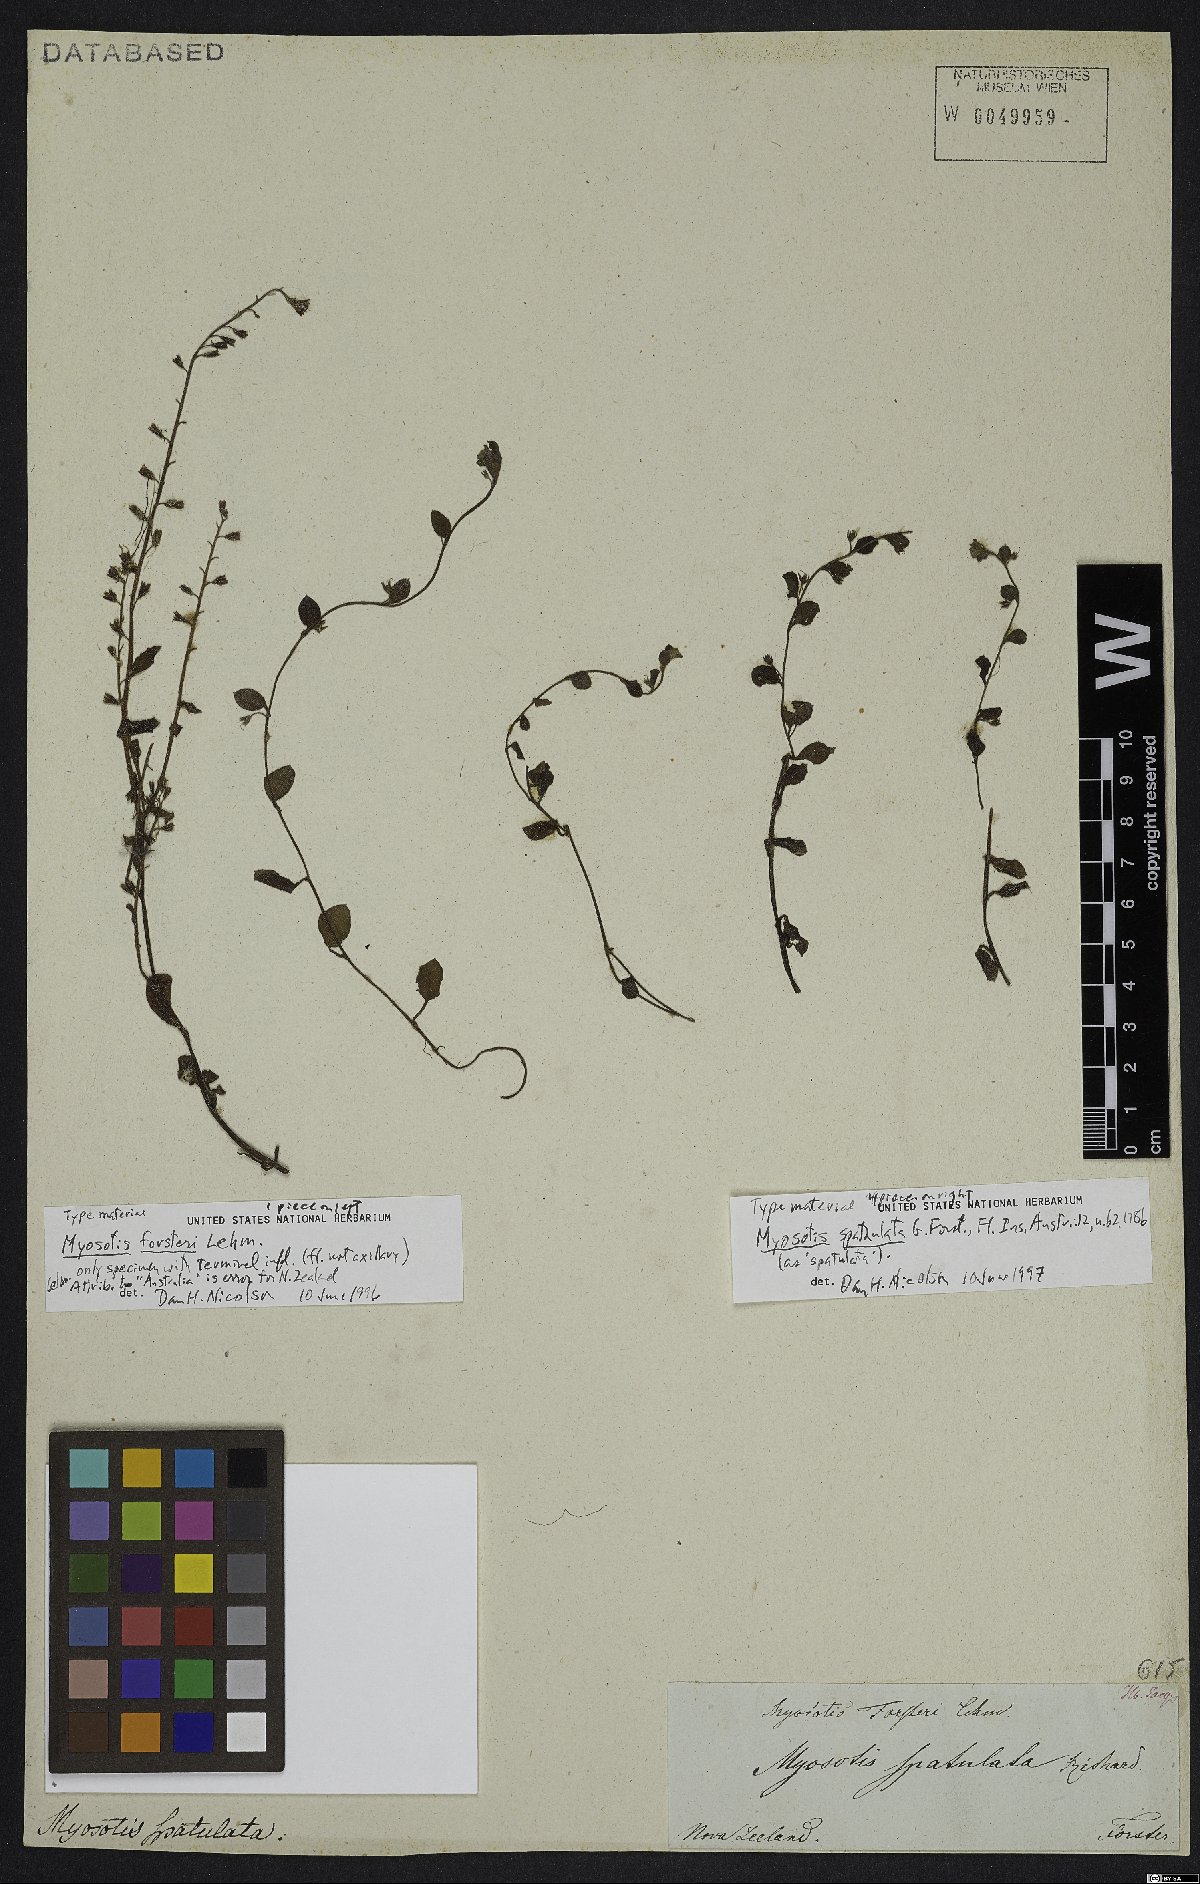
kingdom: Plantae
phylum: Tracheophyta
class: Magnoliopsida
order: Boraginales
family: Boraginaceae
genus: Myosotis
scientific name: Myosotis spathulata
